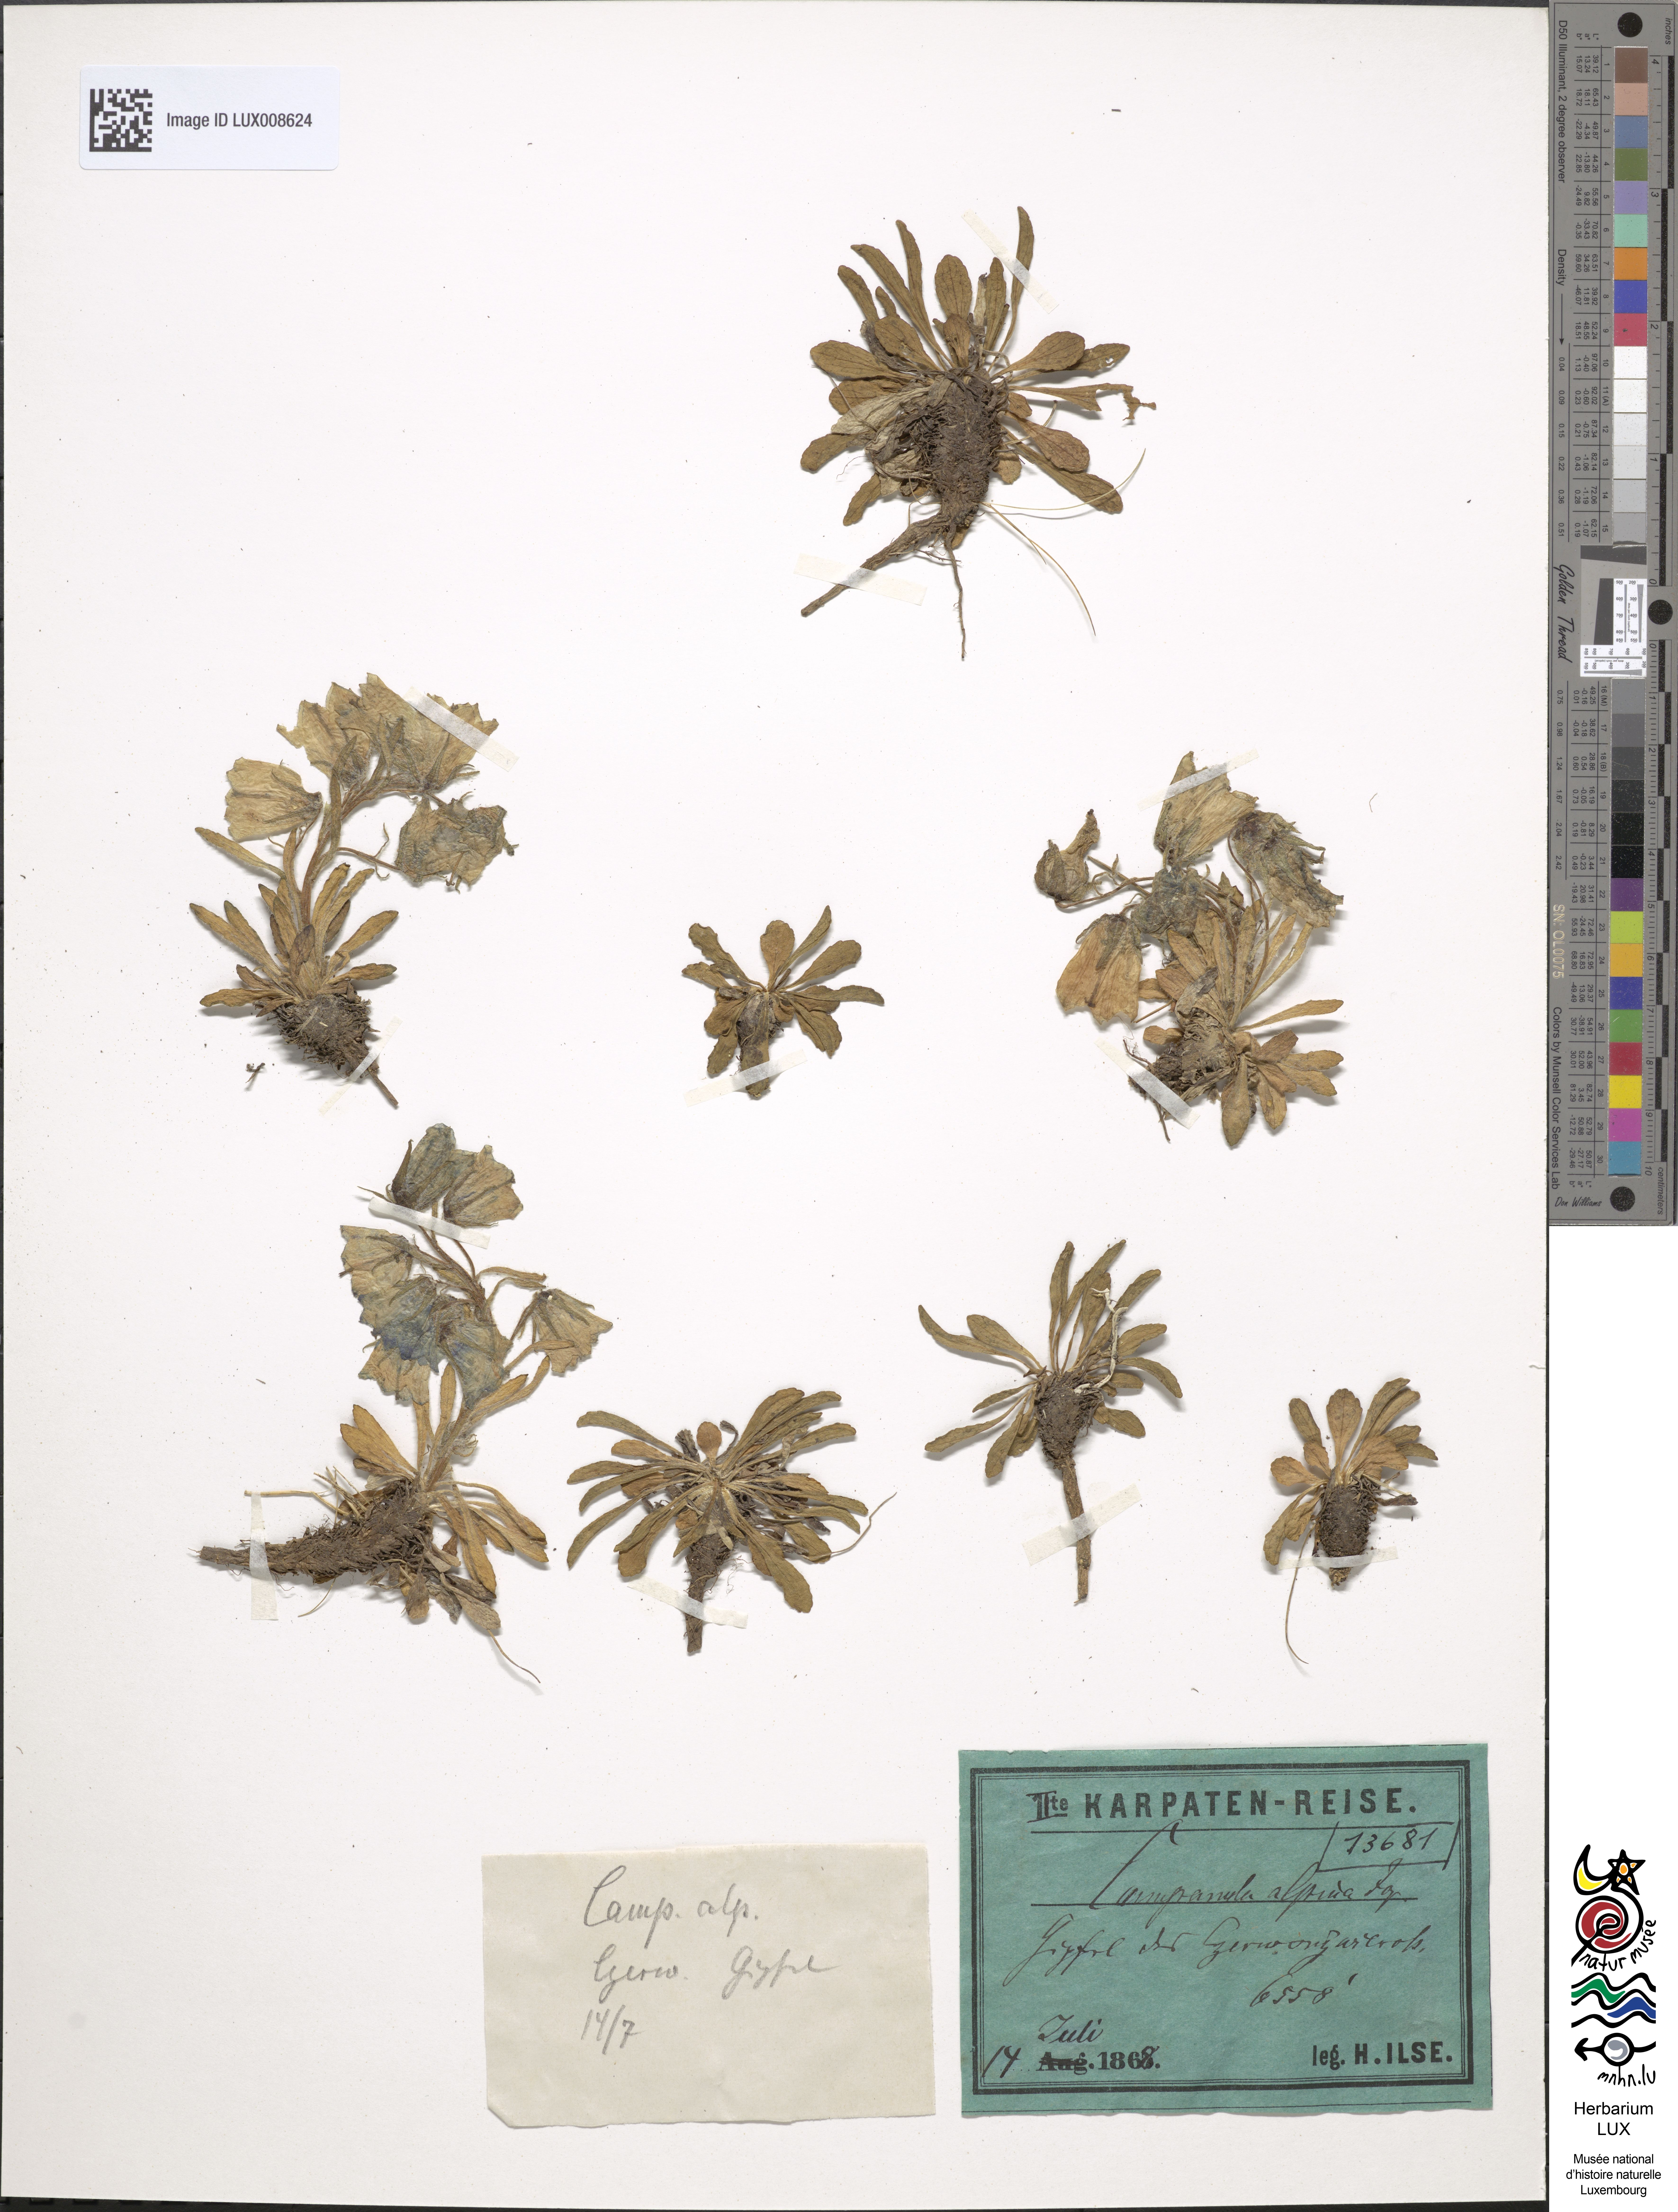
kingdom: Plantae
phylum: Tracheophyta
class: Magnoliopsida
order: Asterales
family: Campanulaceae
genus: Campanula
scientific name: Campanula alpina
